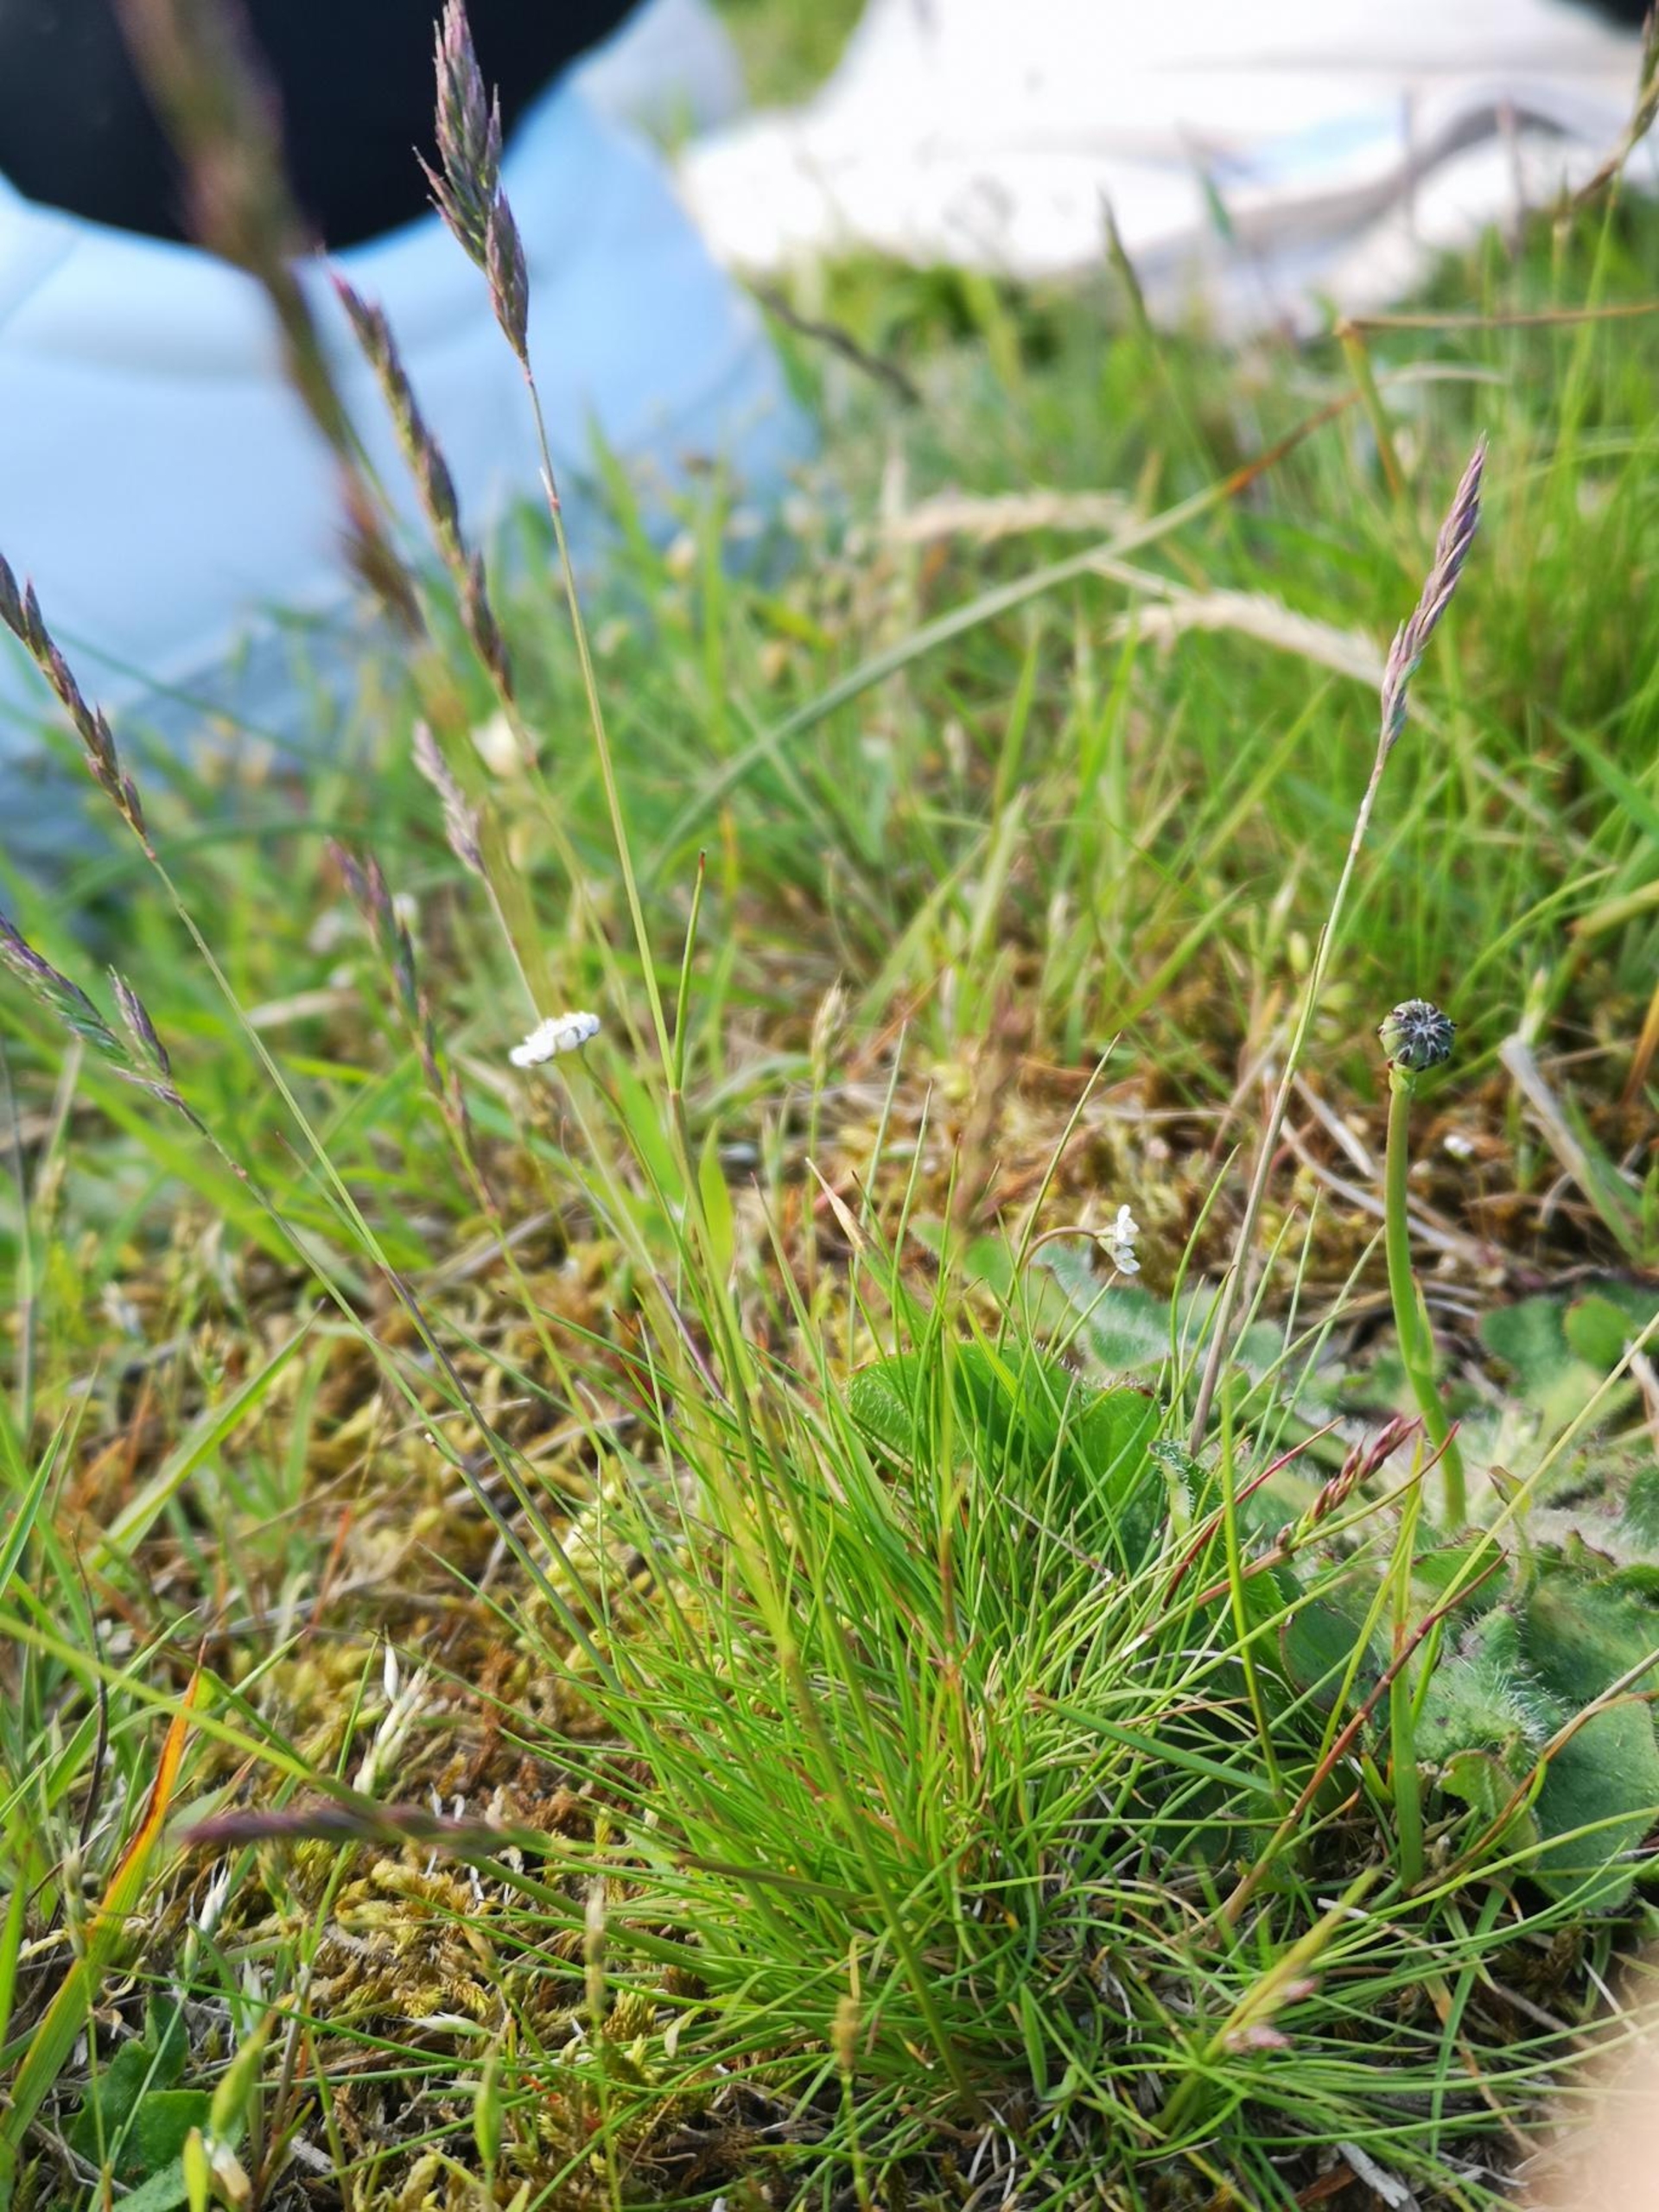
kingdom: Plantae
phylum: Tracheophyta
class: Liliopsida
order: Poales
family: Poaceae
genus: Festuca
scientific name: Festuca ovina
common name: Fåre-svingel
